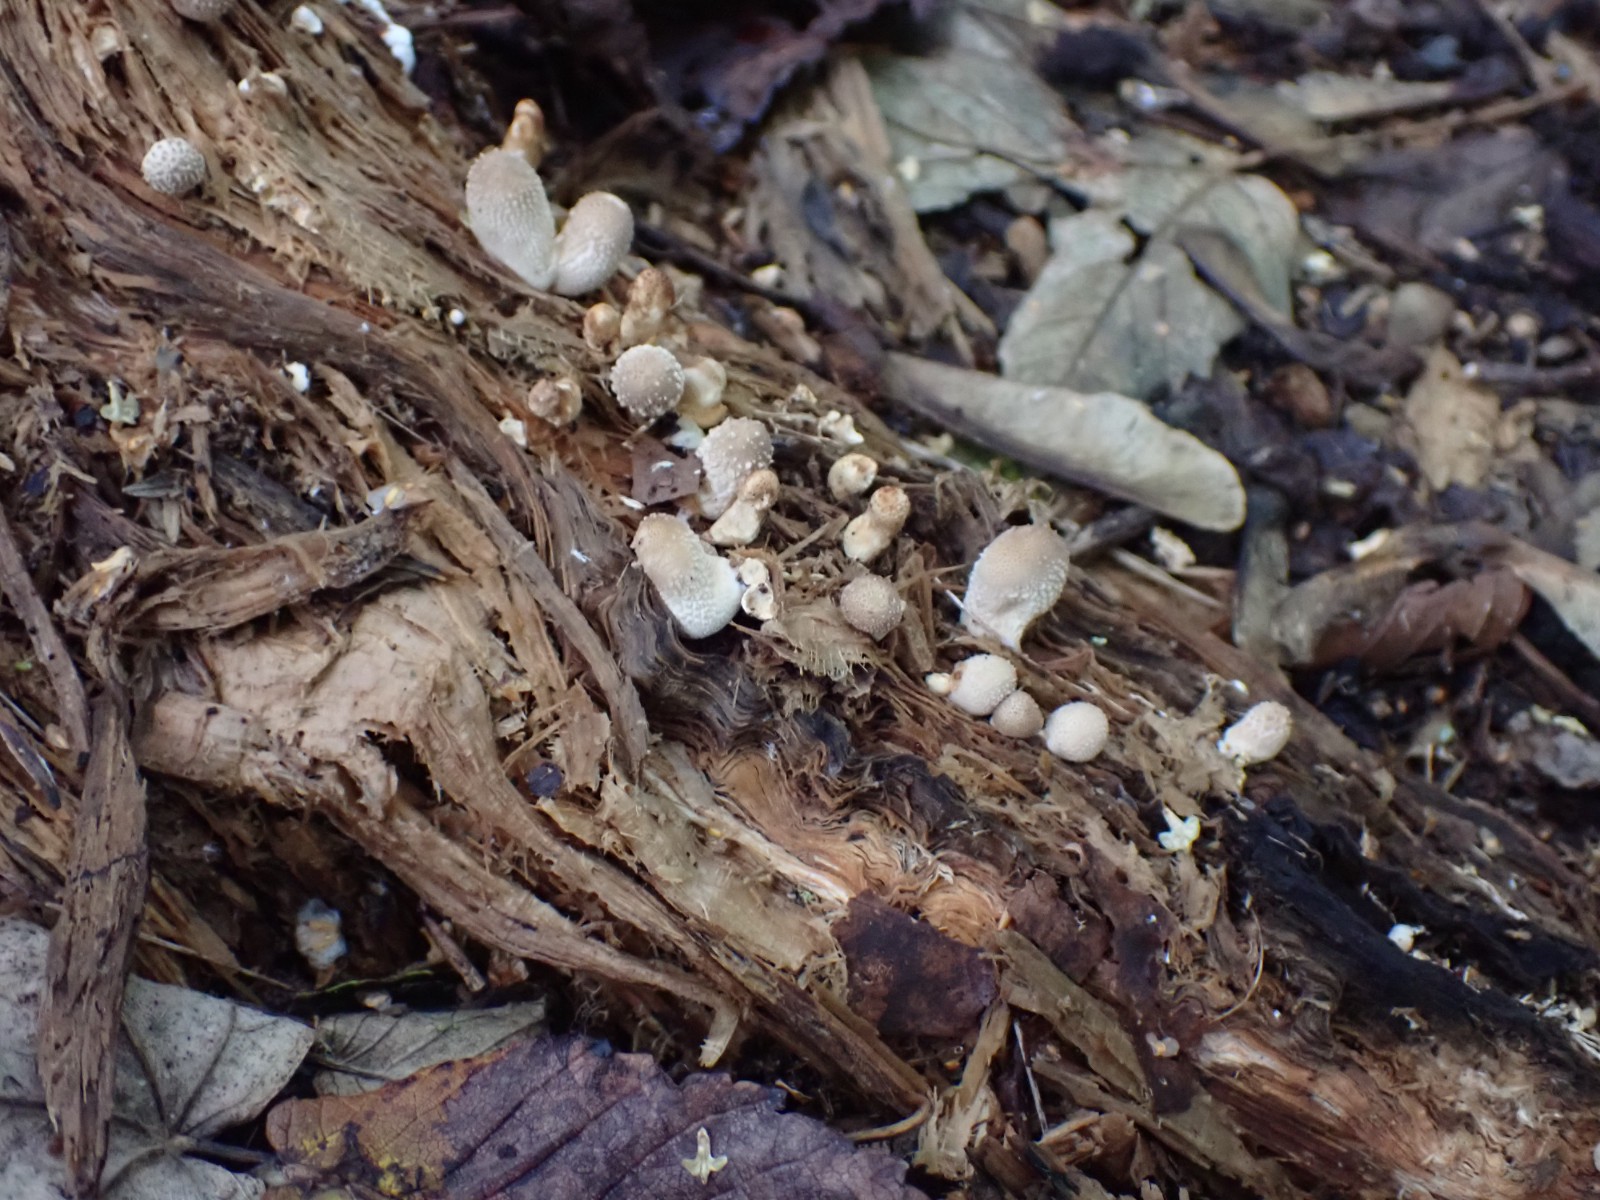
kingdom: Fungi
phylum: Basidiomycota
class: Agaricomycetes
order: Agaricales
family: Lycoperdaceae
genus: Apioperdon
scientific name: Apioperdon pyriforme
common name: pære-støvbold
